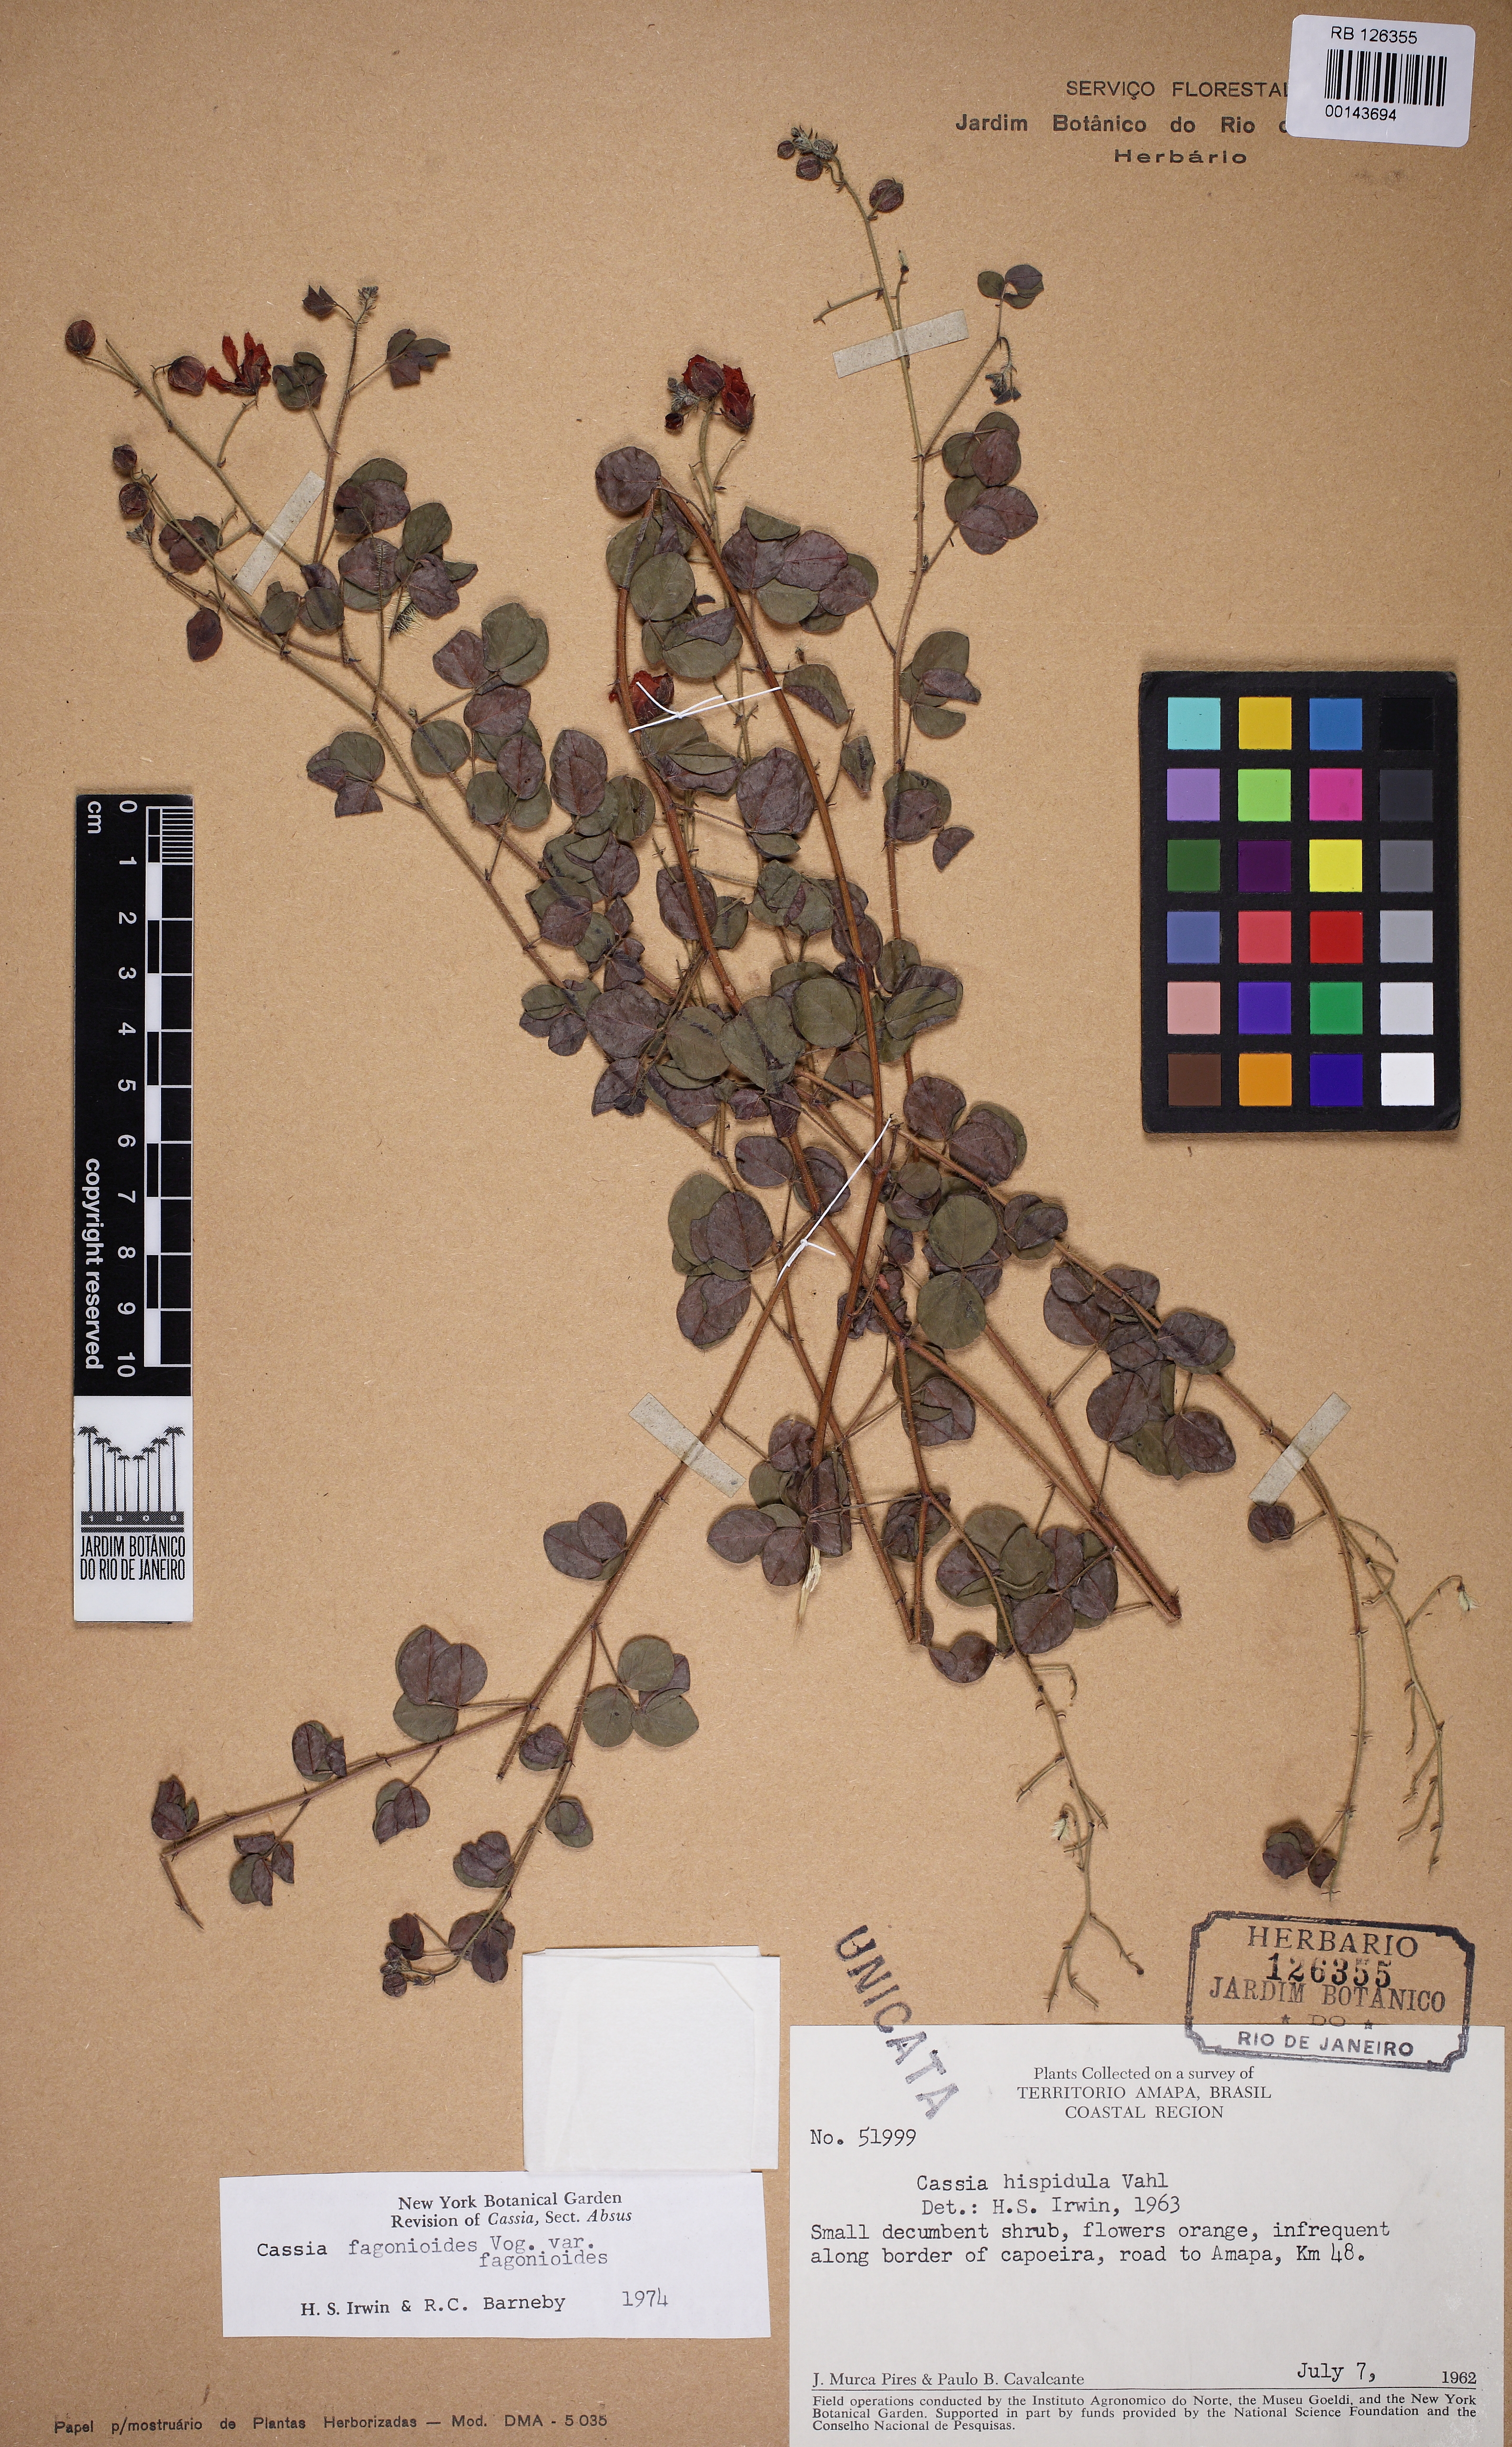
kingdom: Plantae
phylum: Tracheophyta
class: Magnoliopsida
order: Fabales
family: Fabaceae
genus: Chamaecrista
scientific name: Chamaecrista fagonioides
